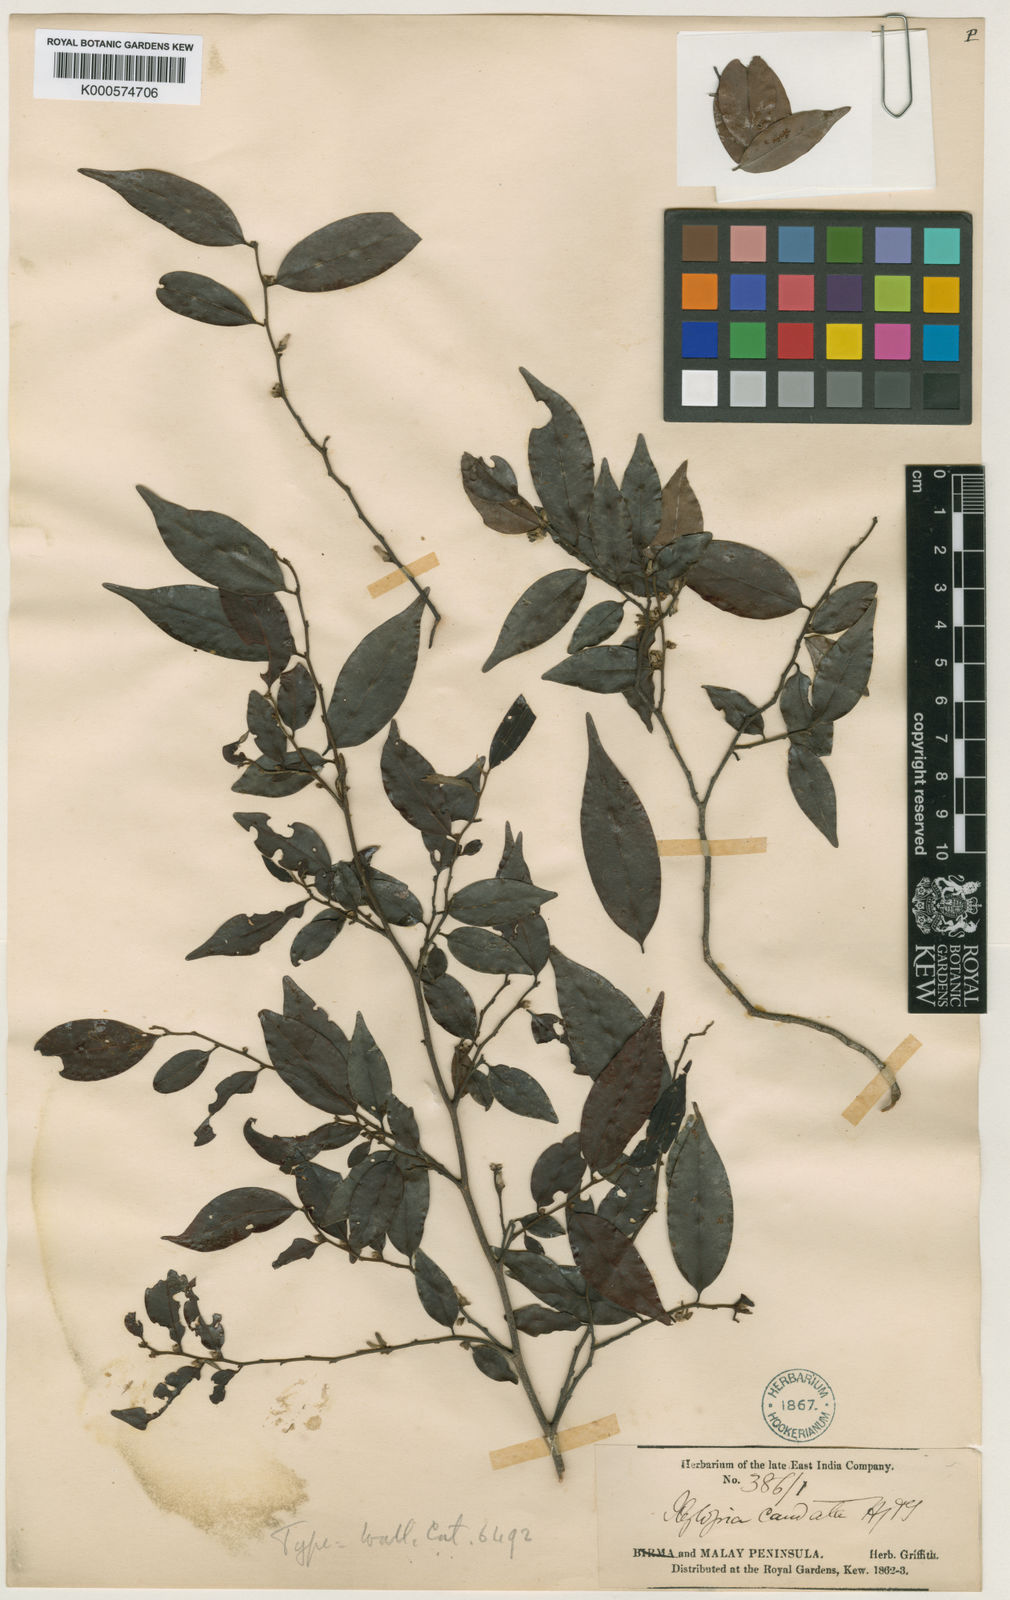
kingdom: Plantae
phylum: Tracheophyta
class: Magnoliopsida
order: Magnoliales
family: Annonaceae
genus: Xylopia
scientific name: Xylopia caudata
